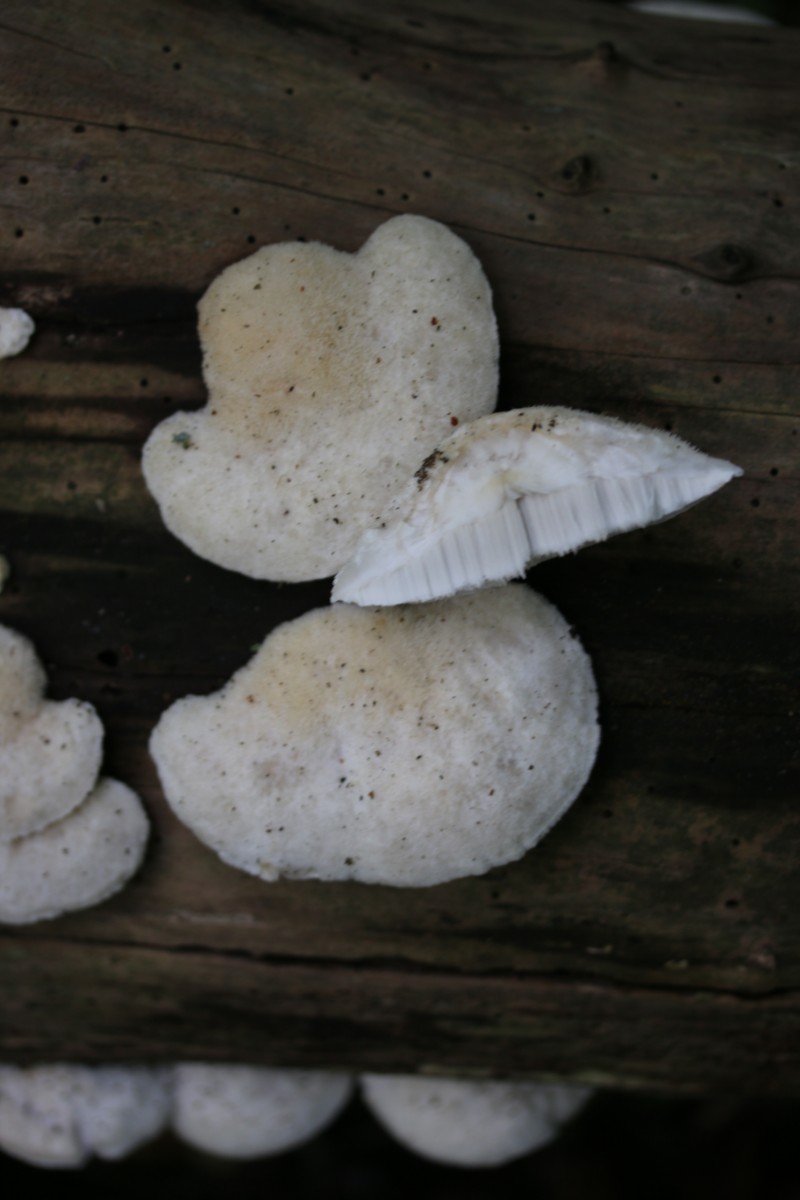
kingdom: Fungi
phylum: Basidiomycota
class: Agaricomycetes
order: Polyporales
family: Incrustoporiaceae
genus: Tyromyces
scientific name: Tyromyces lacteus
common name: mælkehvid kødporesvamp
